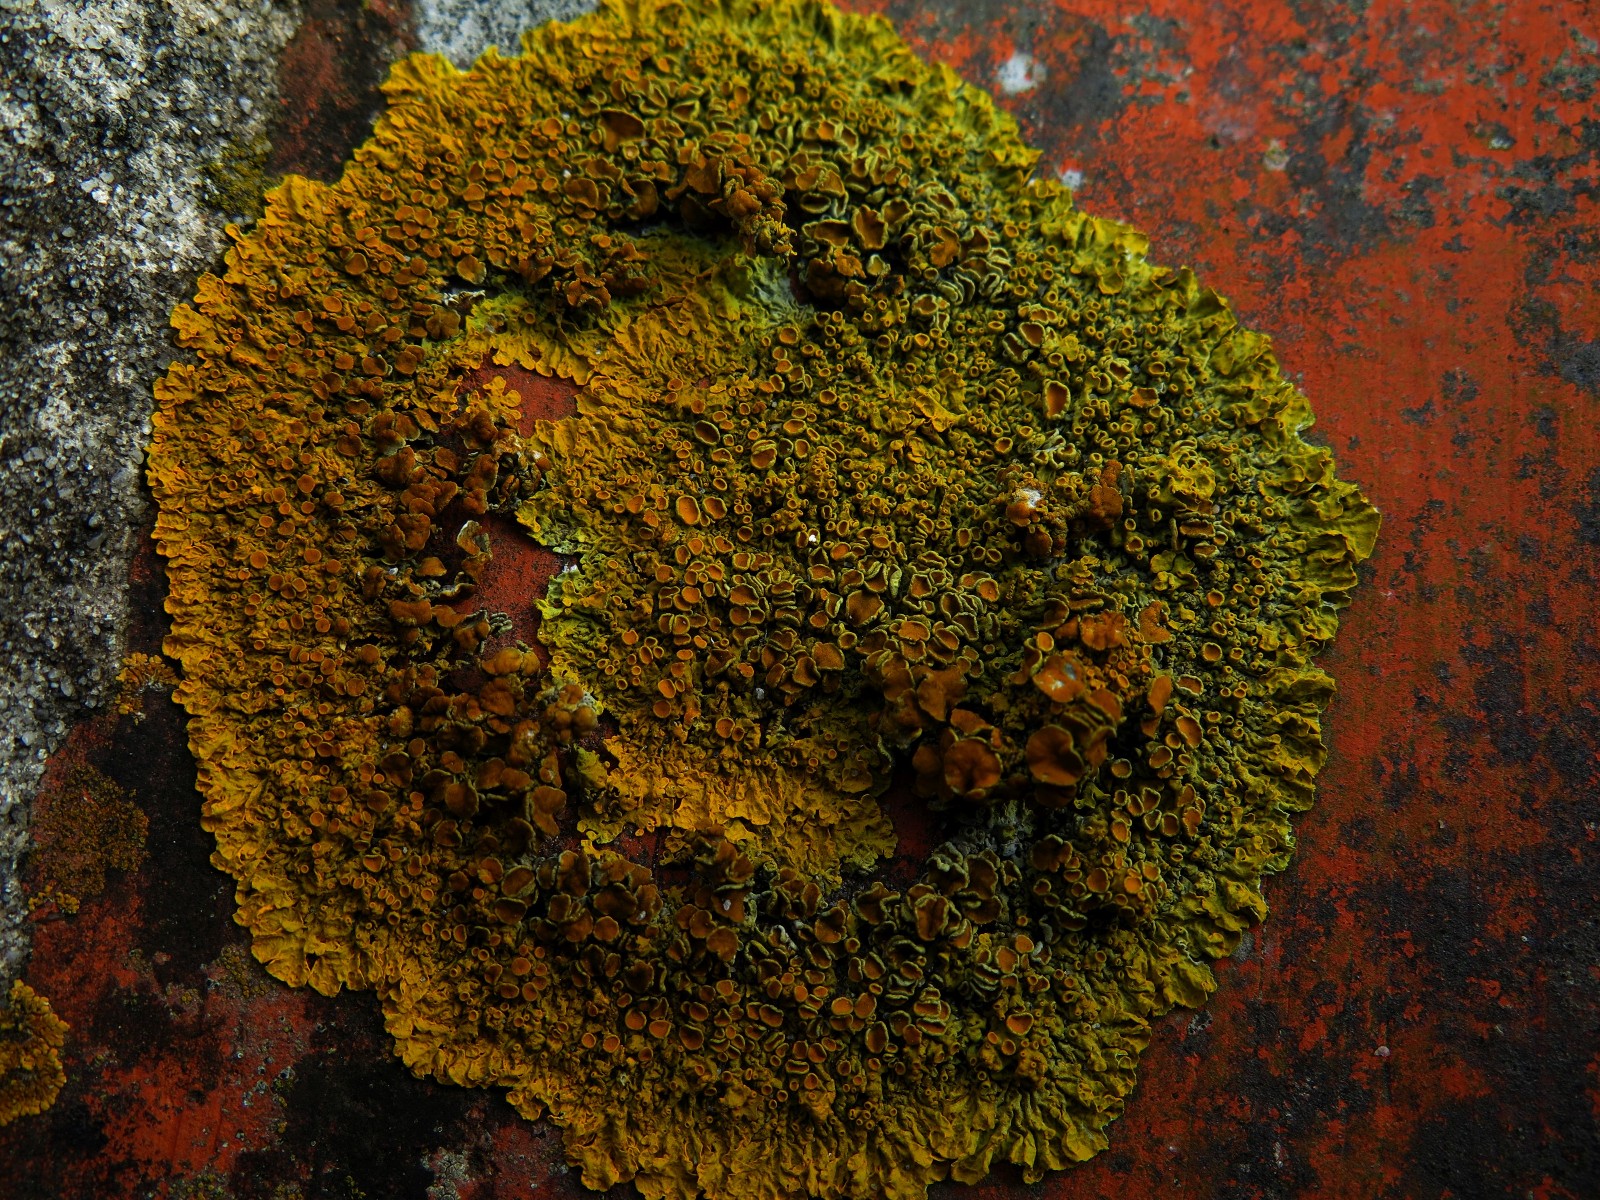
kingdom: Fungi
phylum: Ascomycota
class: Lecanoromycetes
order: Teloschistales
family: Teloschistaceae
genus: Xanthoria
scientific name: Xanthoria parietina
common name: almindelig væggelav
